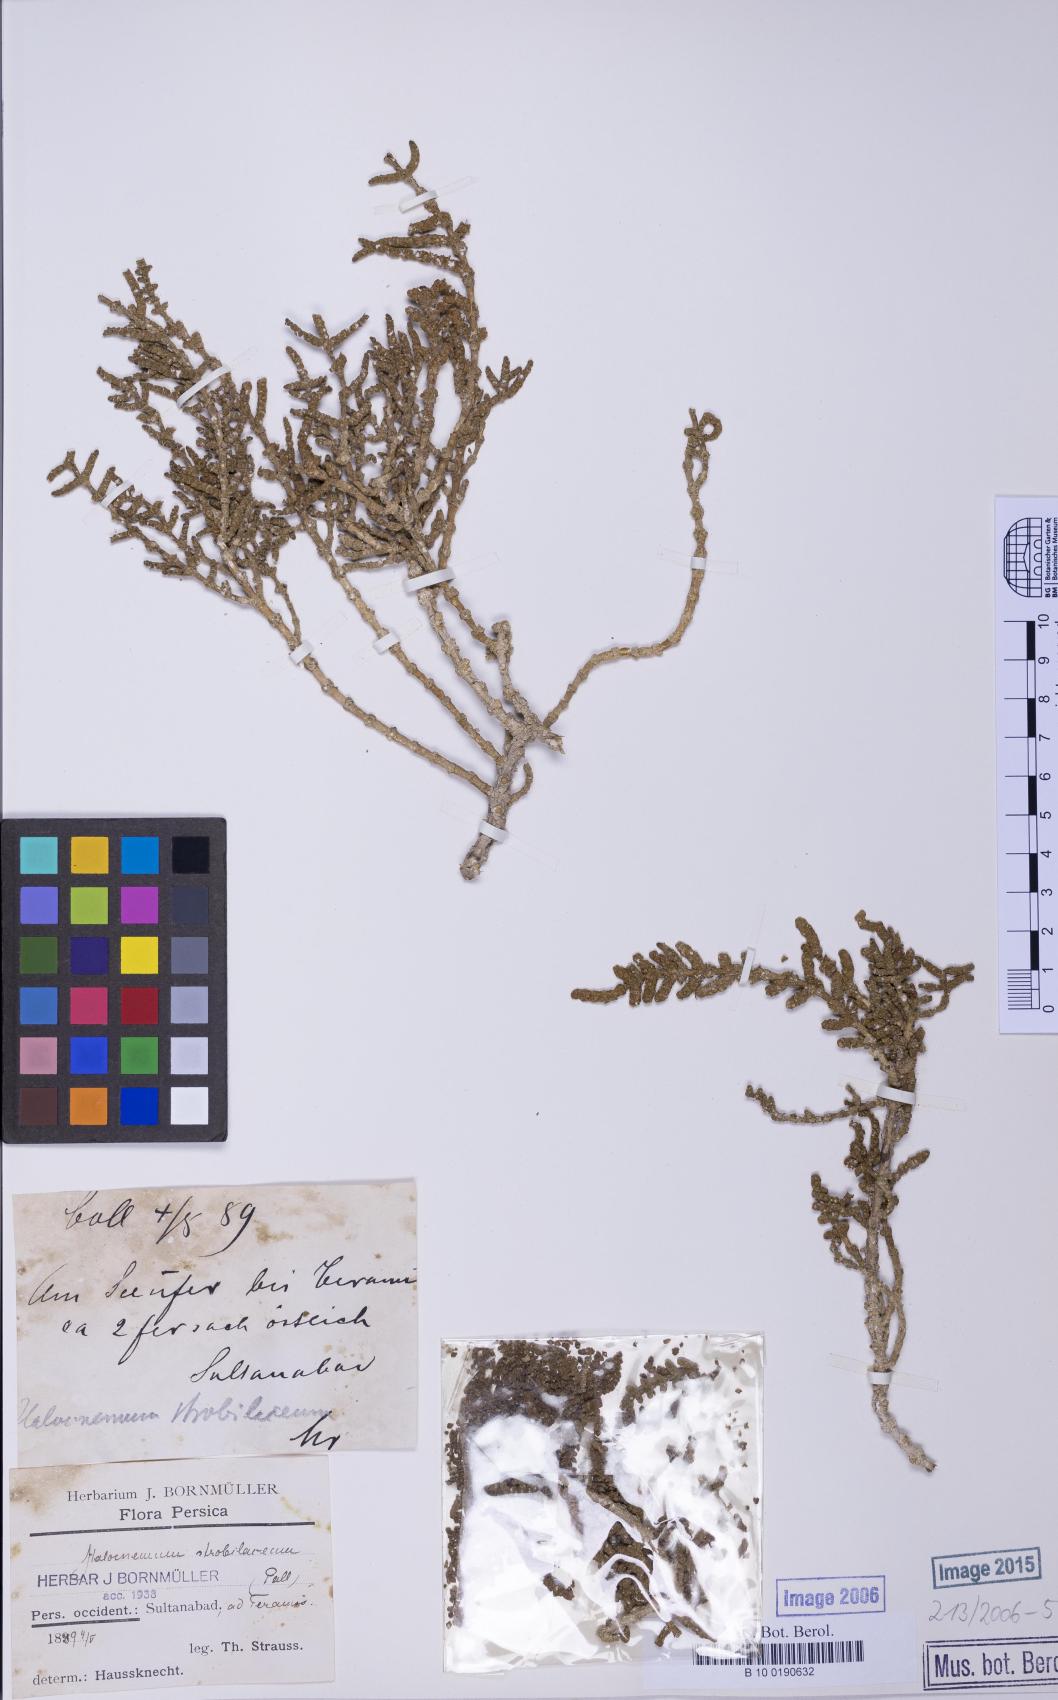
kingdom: Plantae
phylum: Tracheophyta
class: Magnoliopsida
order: Caryophyllales
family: Amaranthaceae
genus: Halocnemum
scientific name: Halocnemum strobilaceum
